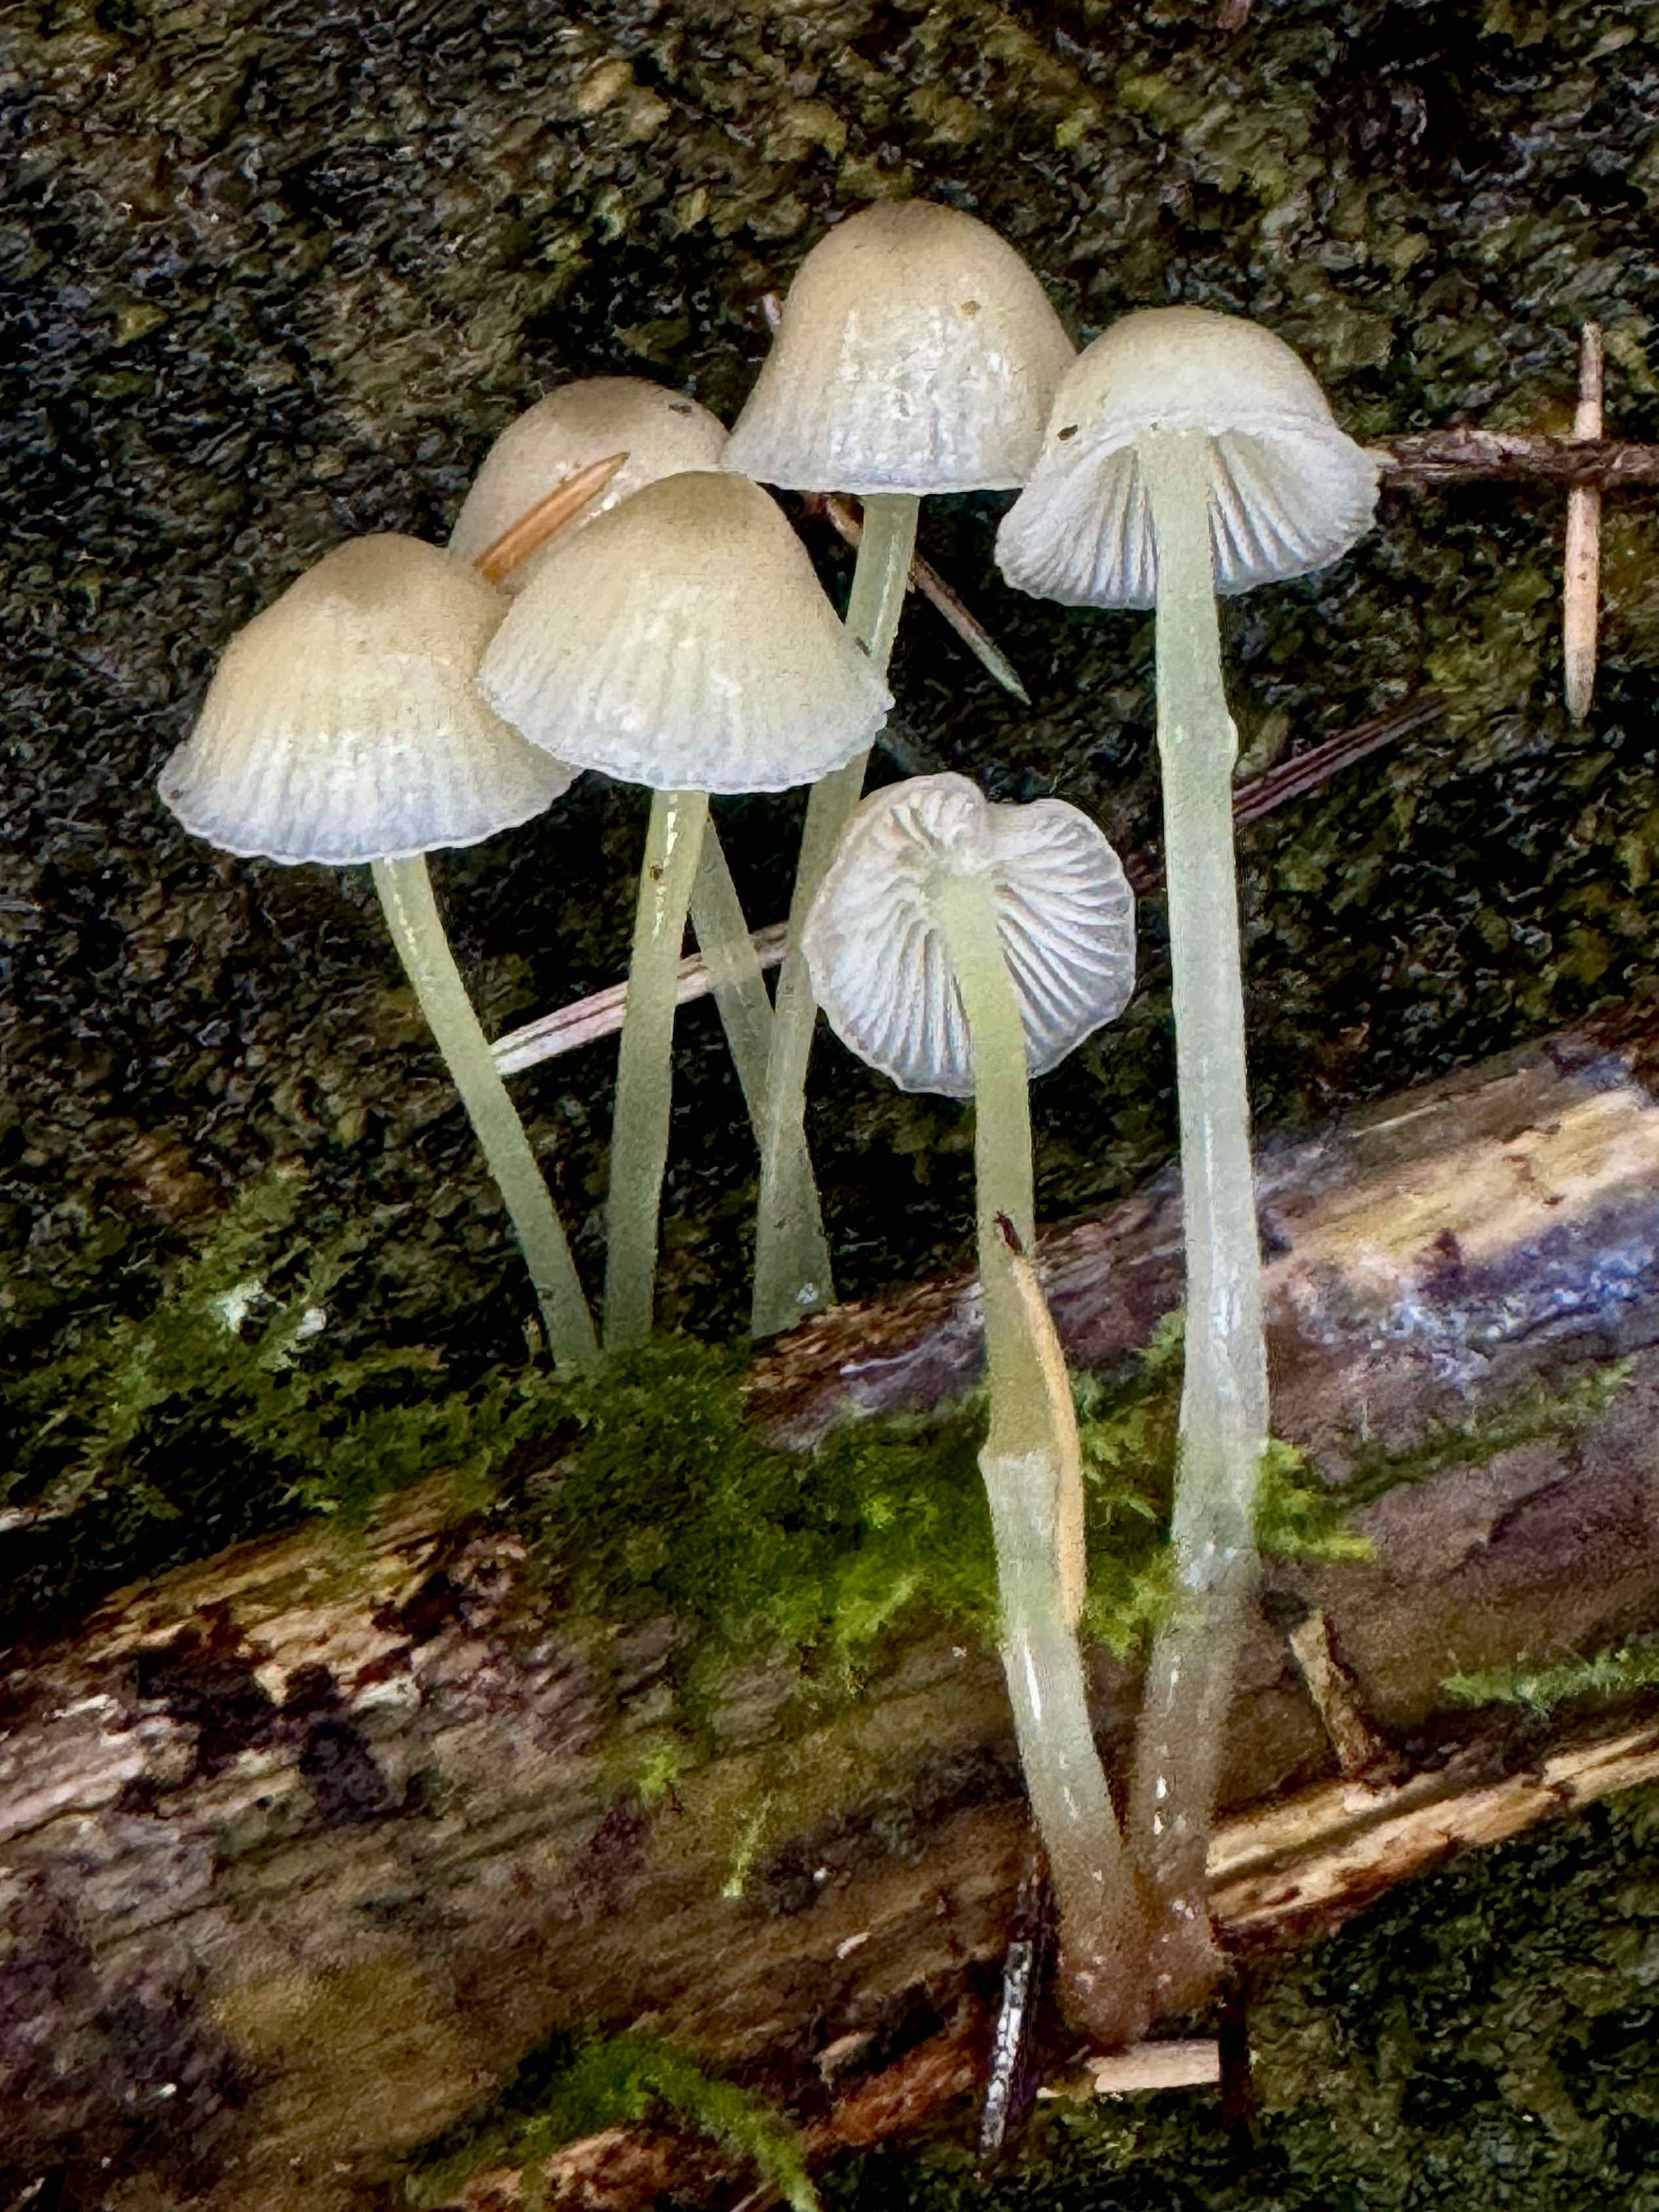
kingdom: Fungi
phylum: Basidiomycota
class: Agaricomycetes
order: Agaricales
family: Mycenaceae
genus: Mycena
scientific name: Mycena epipterygia
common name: gulstokket huesvamp
